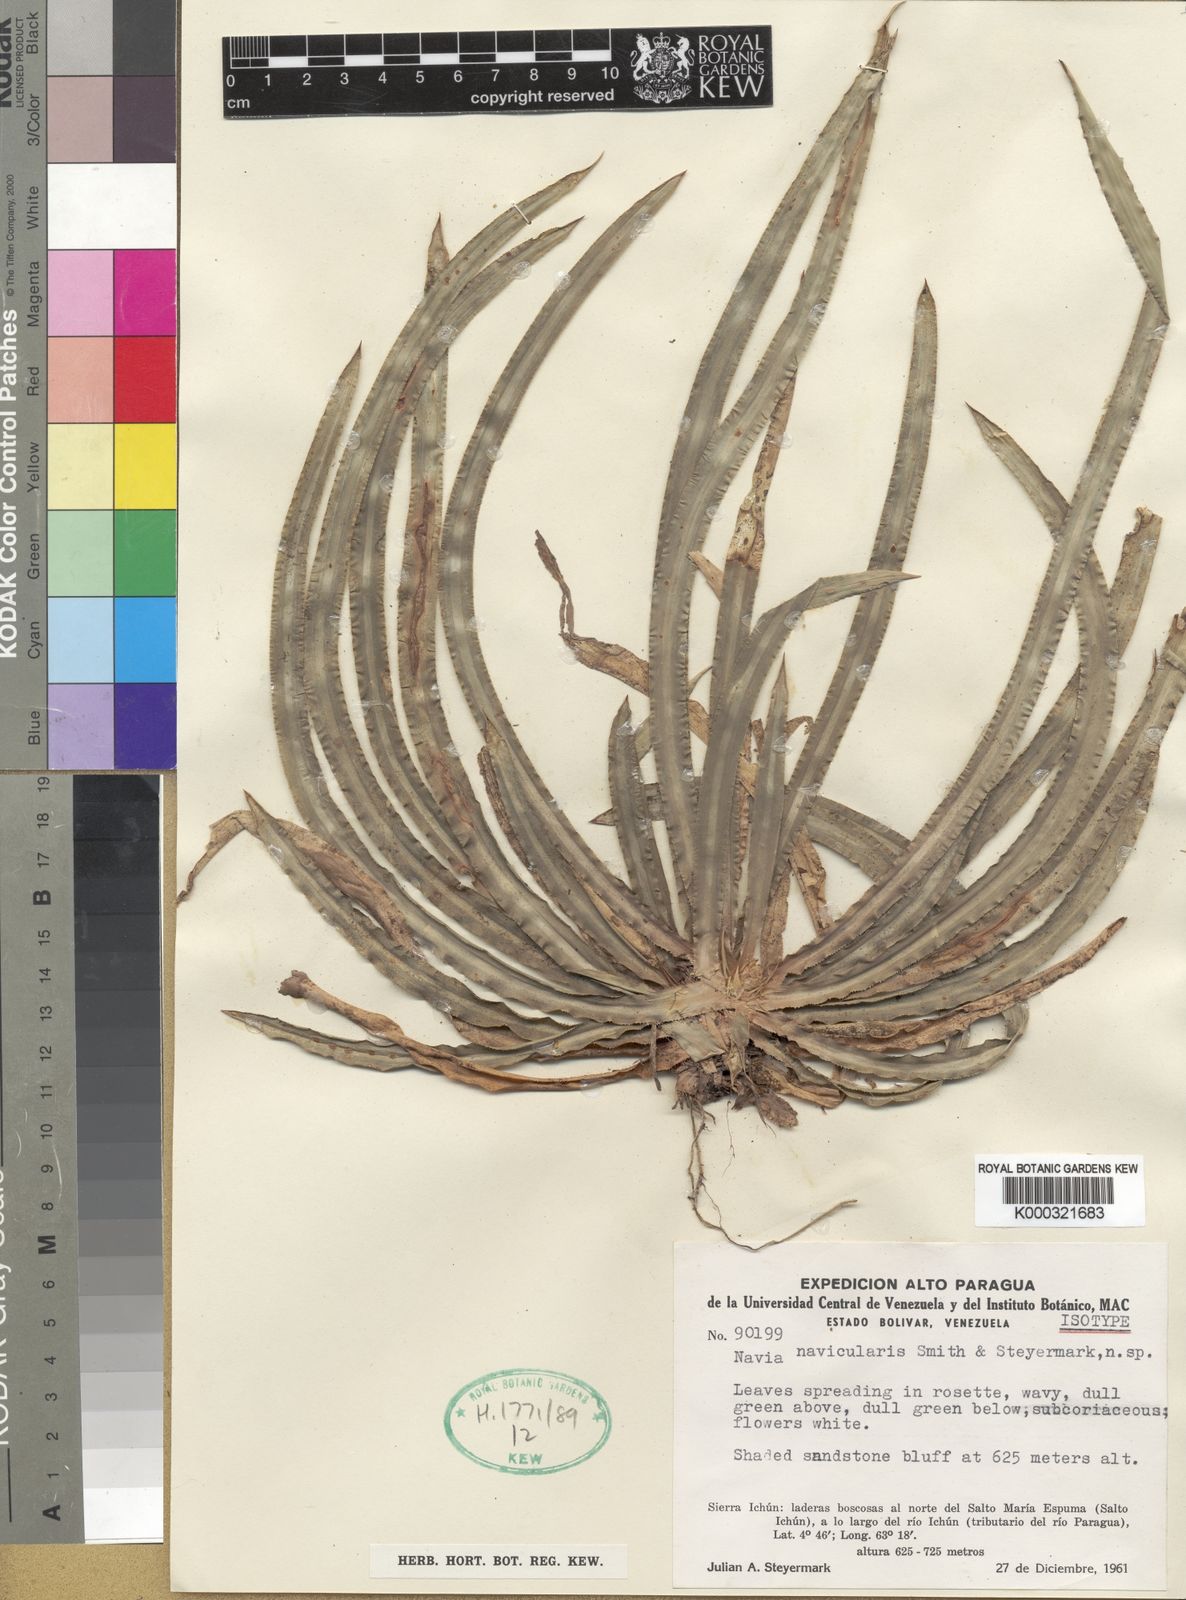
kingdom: Plantae
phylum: Tracheophyta
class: Liliopsida
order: Poales
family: Bromeliaceae
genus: Navia
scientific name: Navia navicularis
